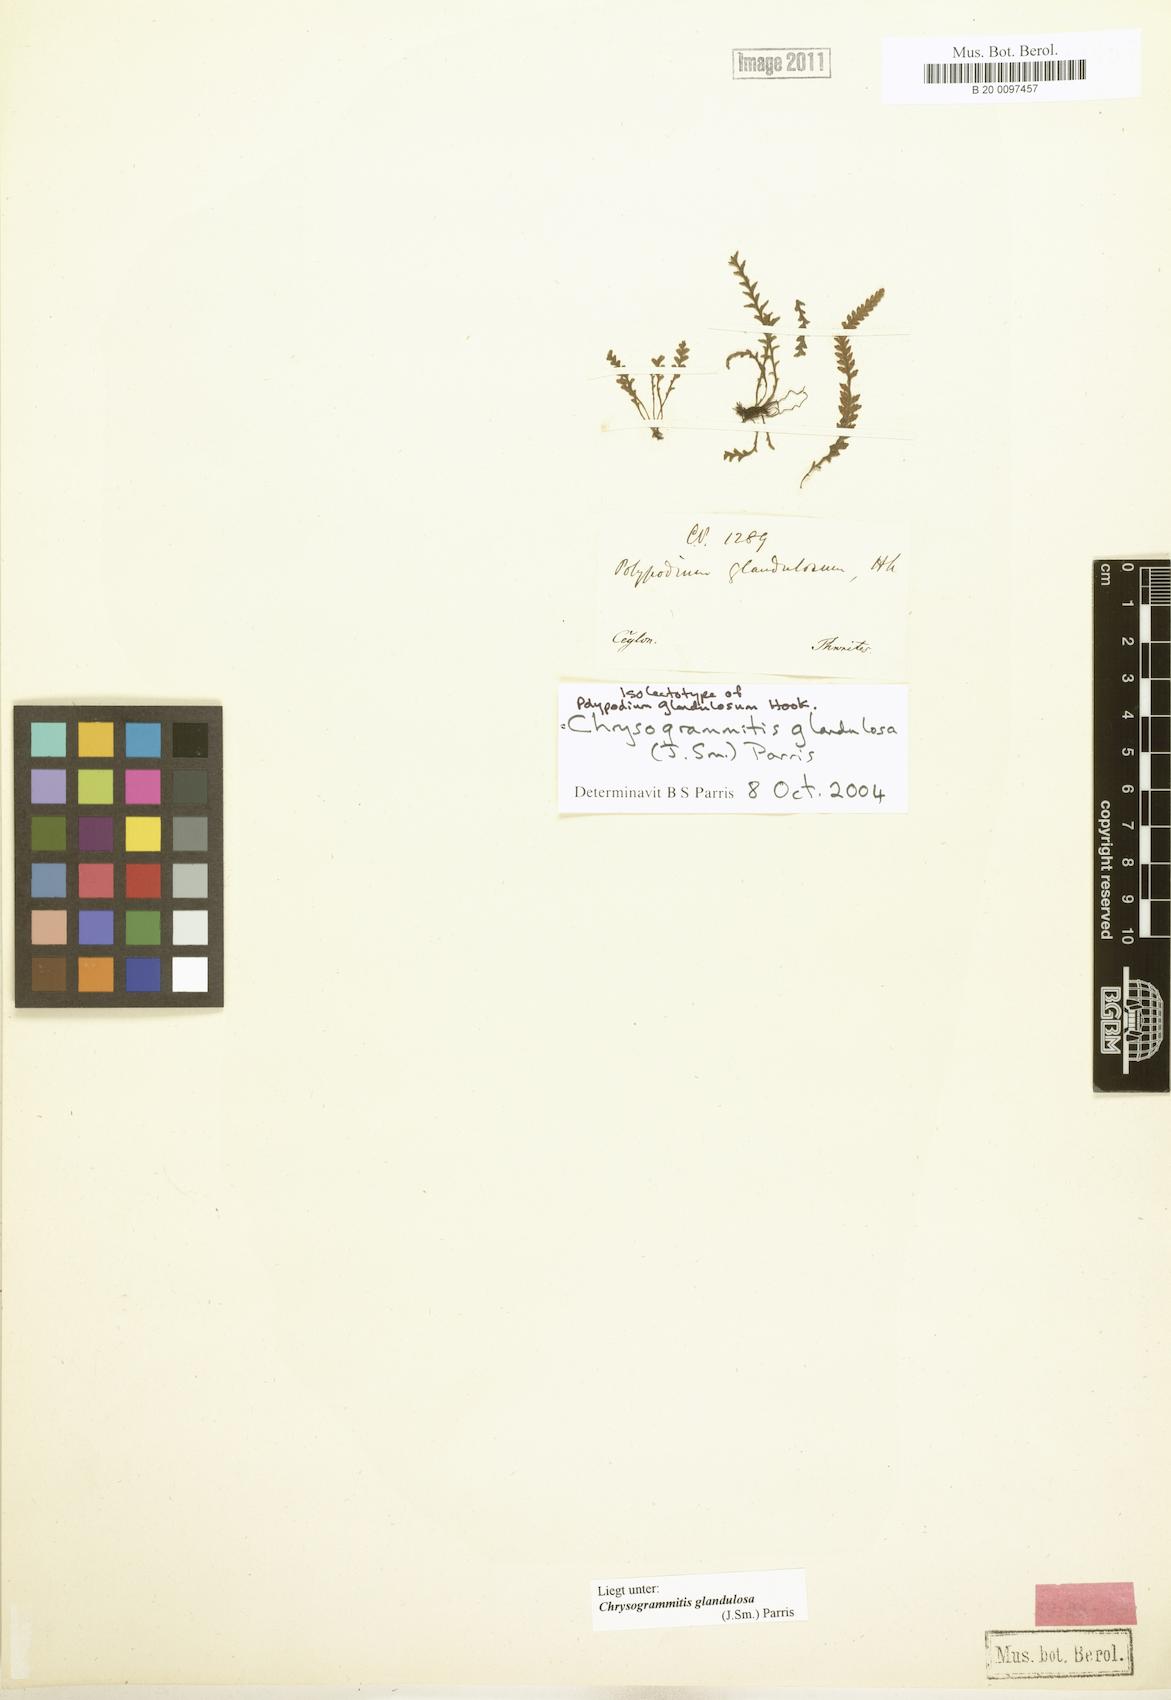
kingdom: Plantae
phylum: Tracheophyta
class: Polypodiopsida
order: Polypodiales
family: Polypodiaceae
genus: Chrysogrammitis
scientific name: Chrysogrammitis glandulosa
